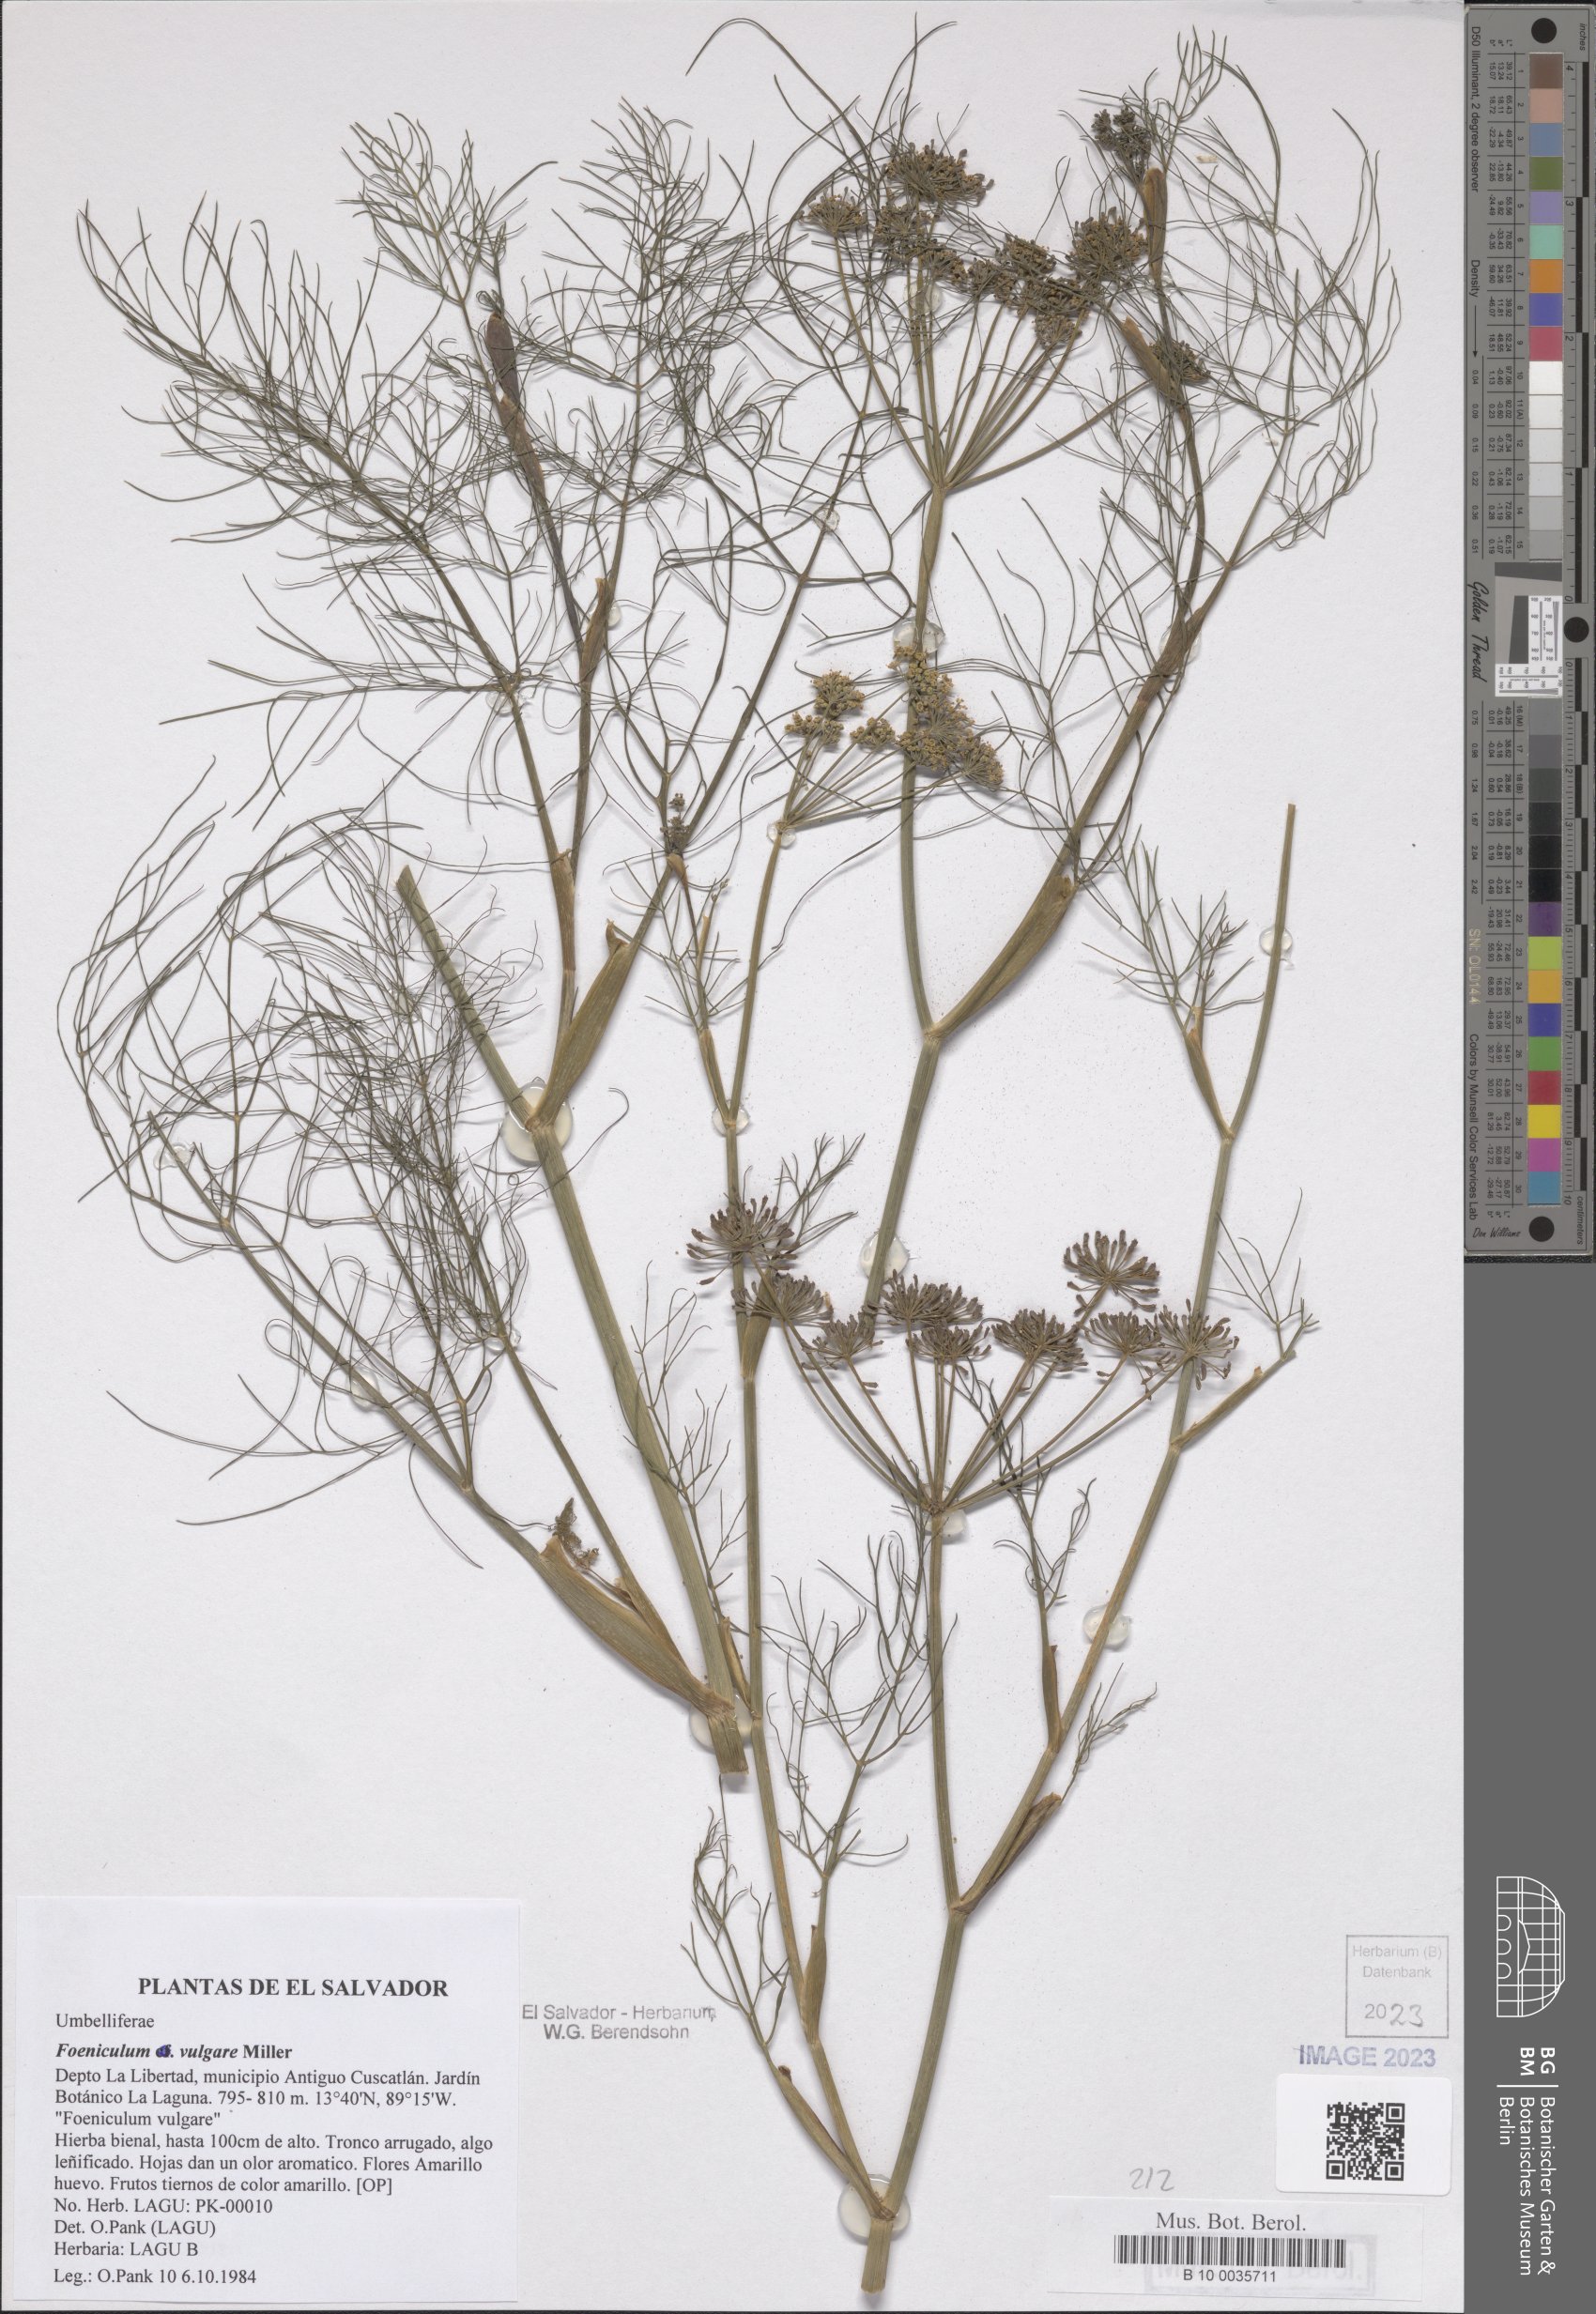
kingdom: Plantae
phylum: Tracheophyta
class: Magnoliopsida
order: Apiales
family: Apiaceae
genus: Foeniculum
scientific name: Foeniculum vulgare
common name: Fennel
